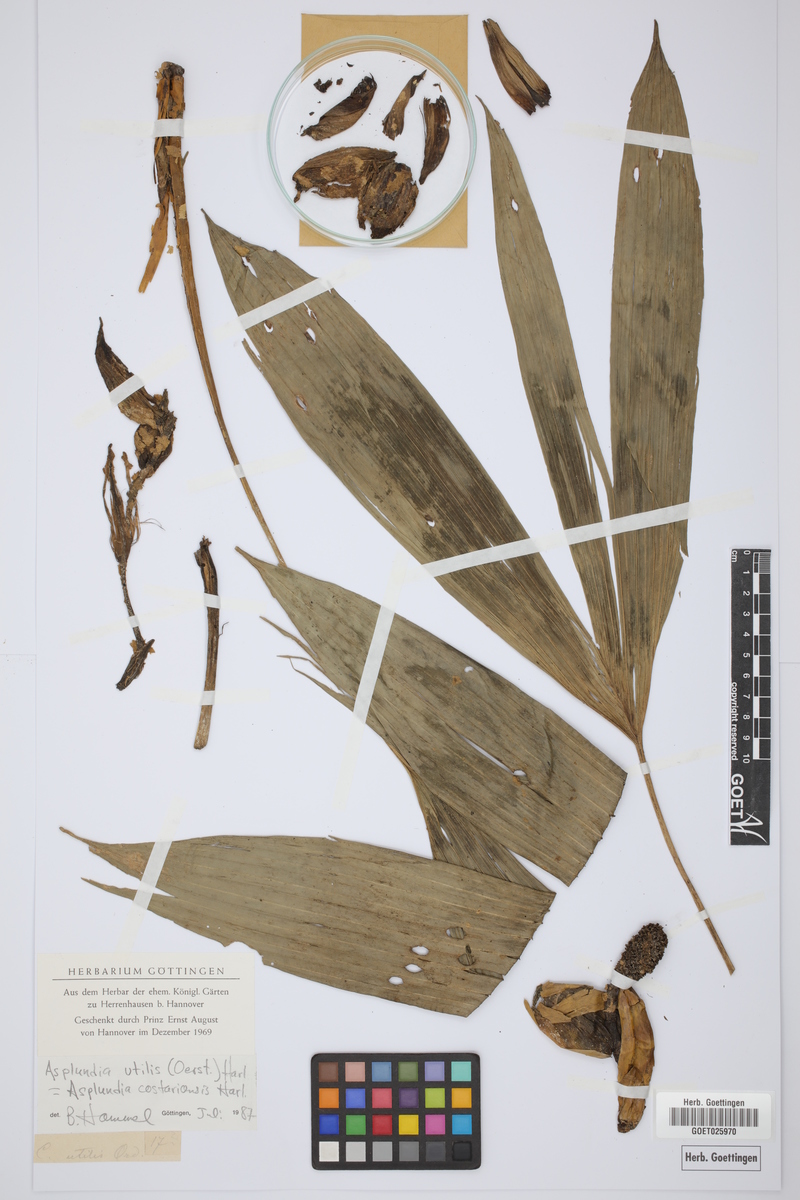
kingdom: Plantae
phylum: Tracheophyta
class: Liliopsida
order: Pandanales
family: Cyclanthaceae
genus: Asplundia
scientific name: Asplundia utilis
